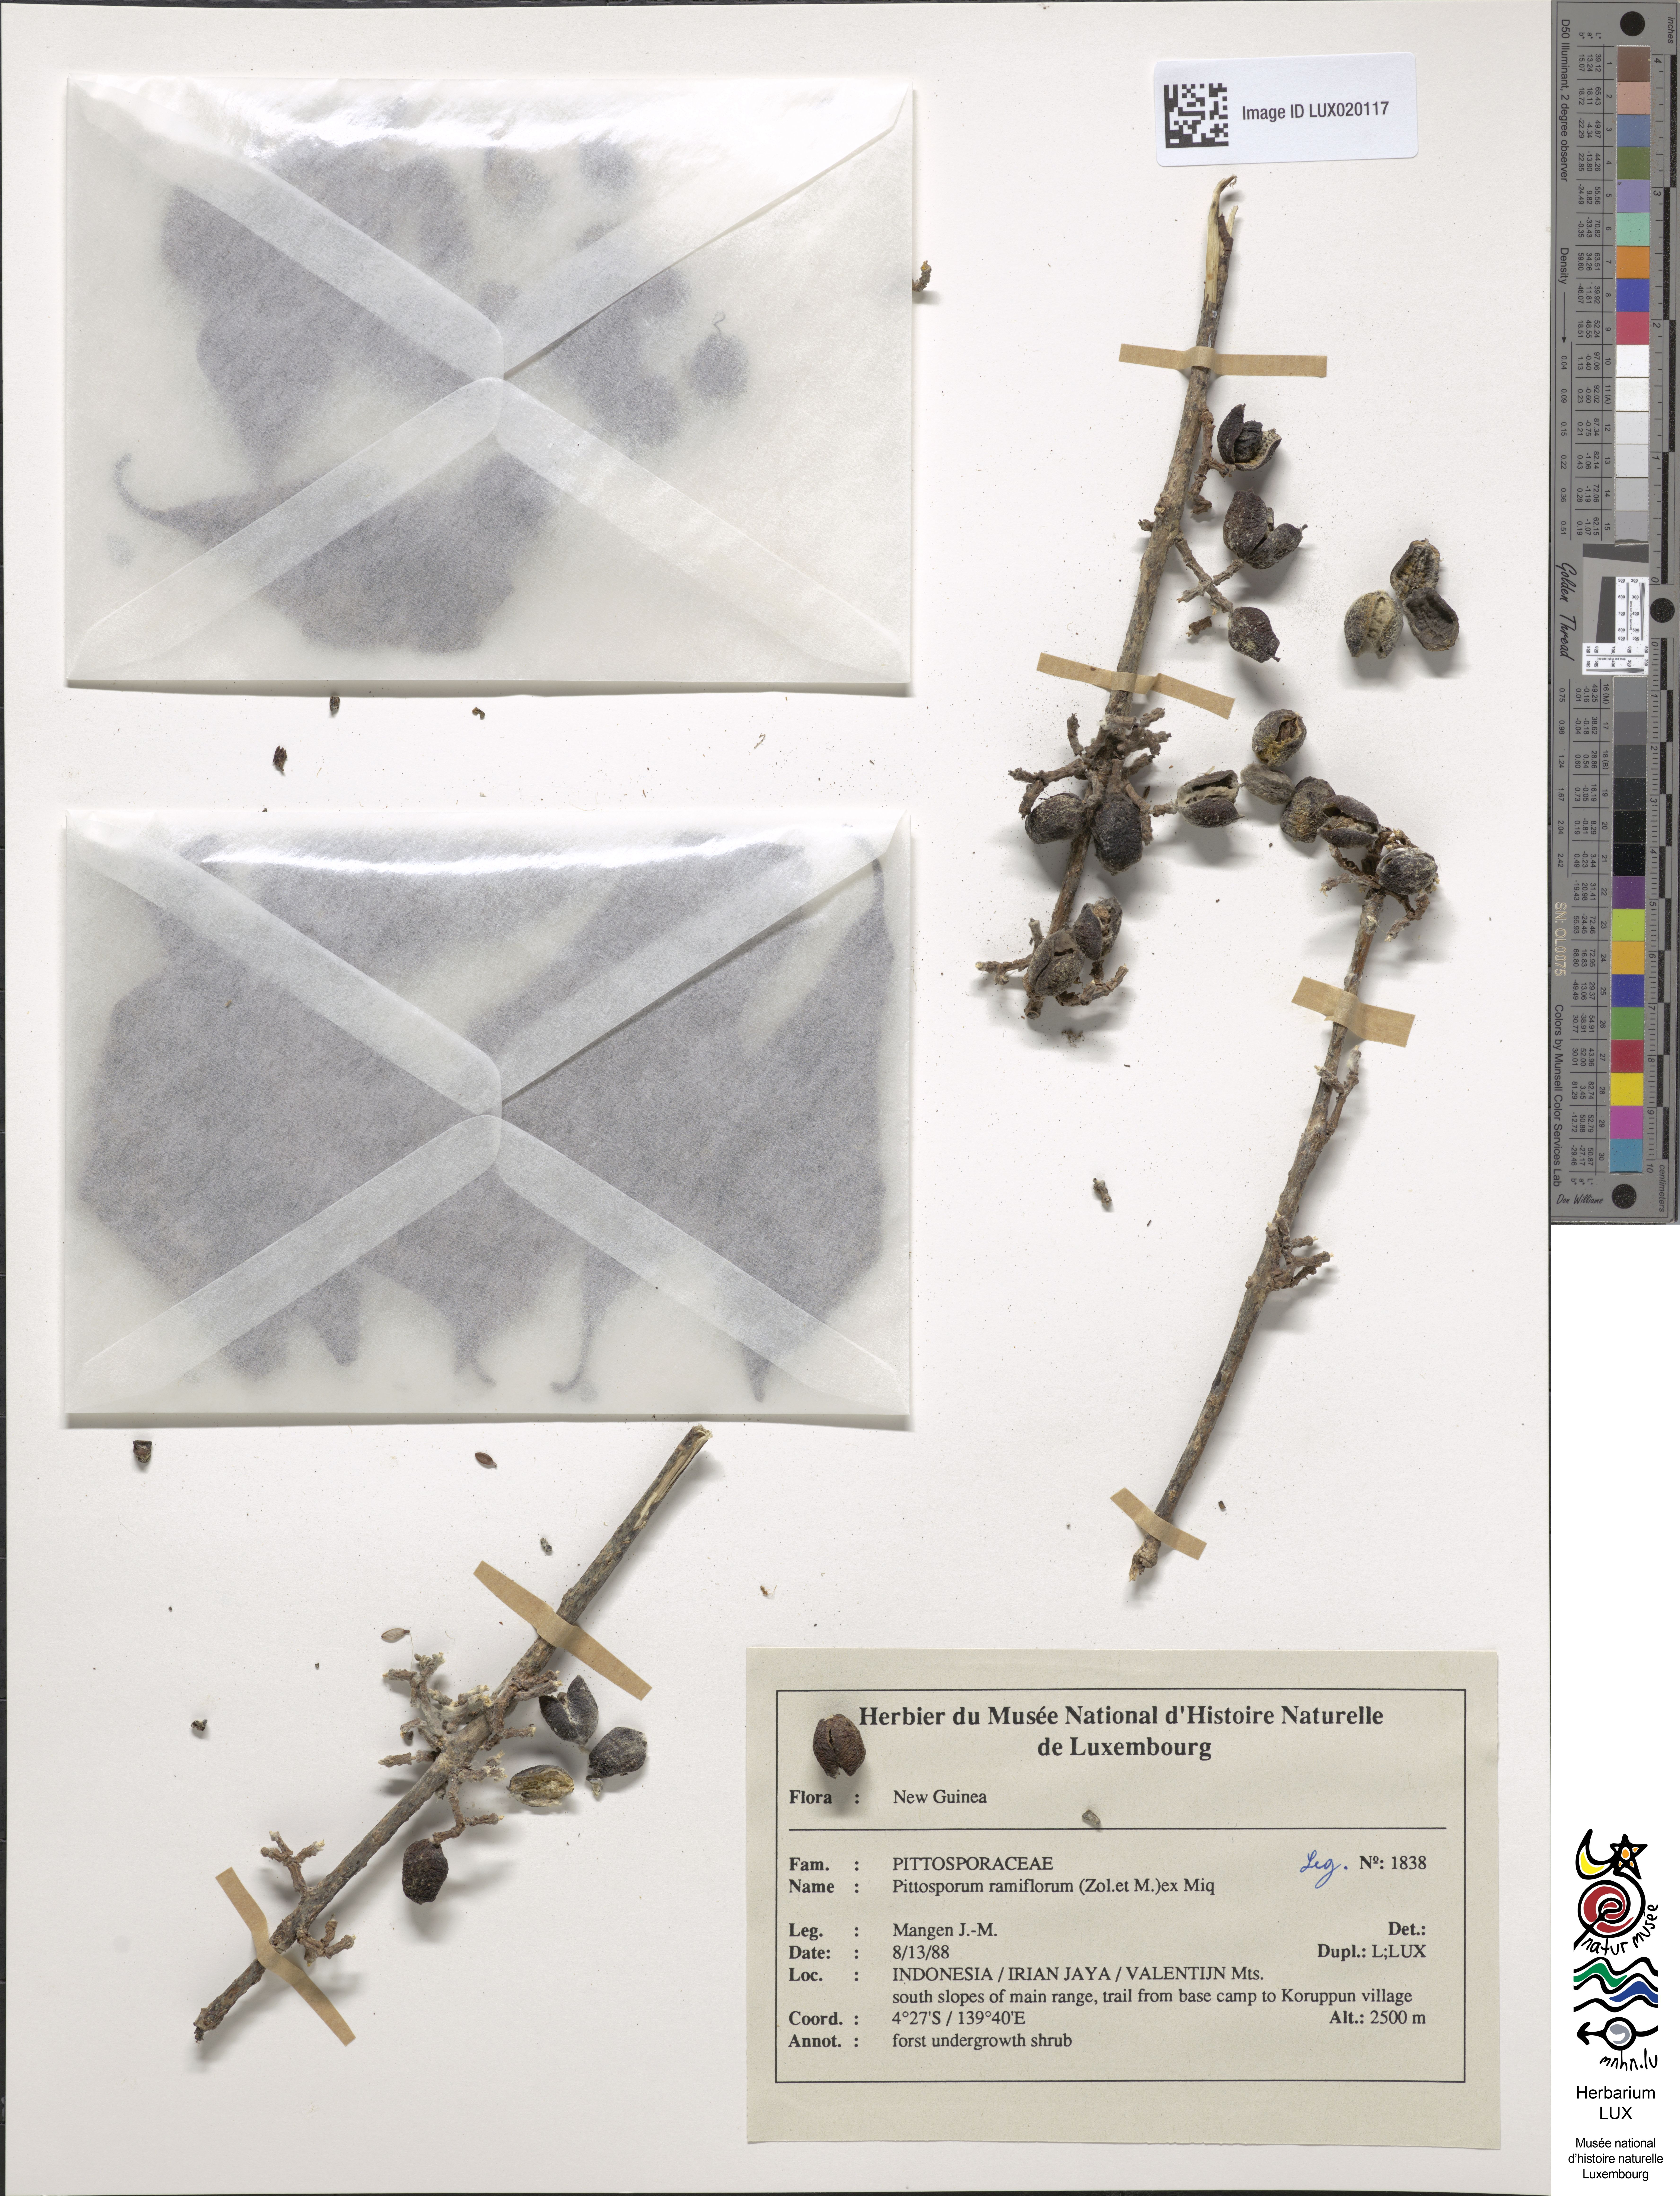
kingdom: Plantae
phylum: Tracheophyta
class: Magnoliopsida
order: Apiales
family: Pittosporaceae
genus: Pittosporum
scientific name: Pittosporum ramiflorum
